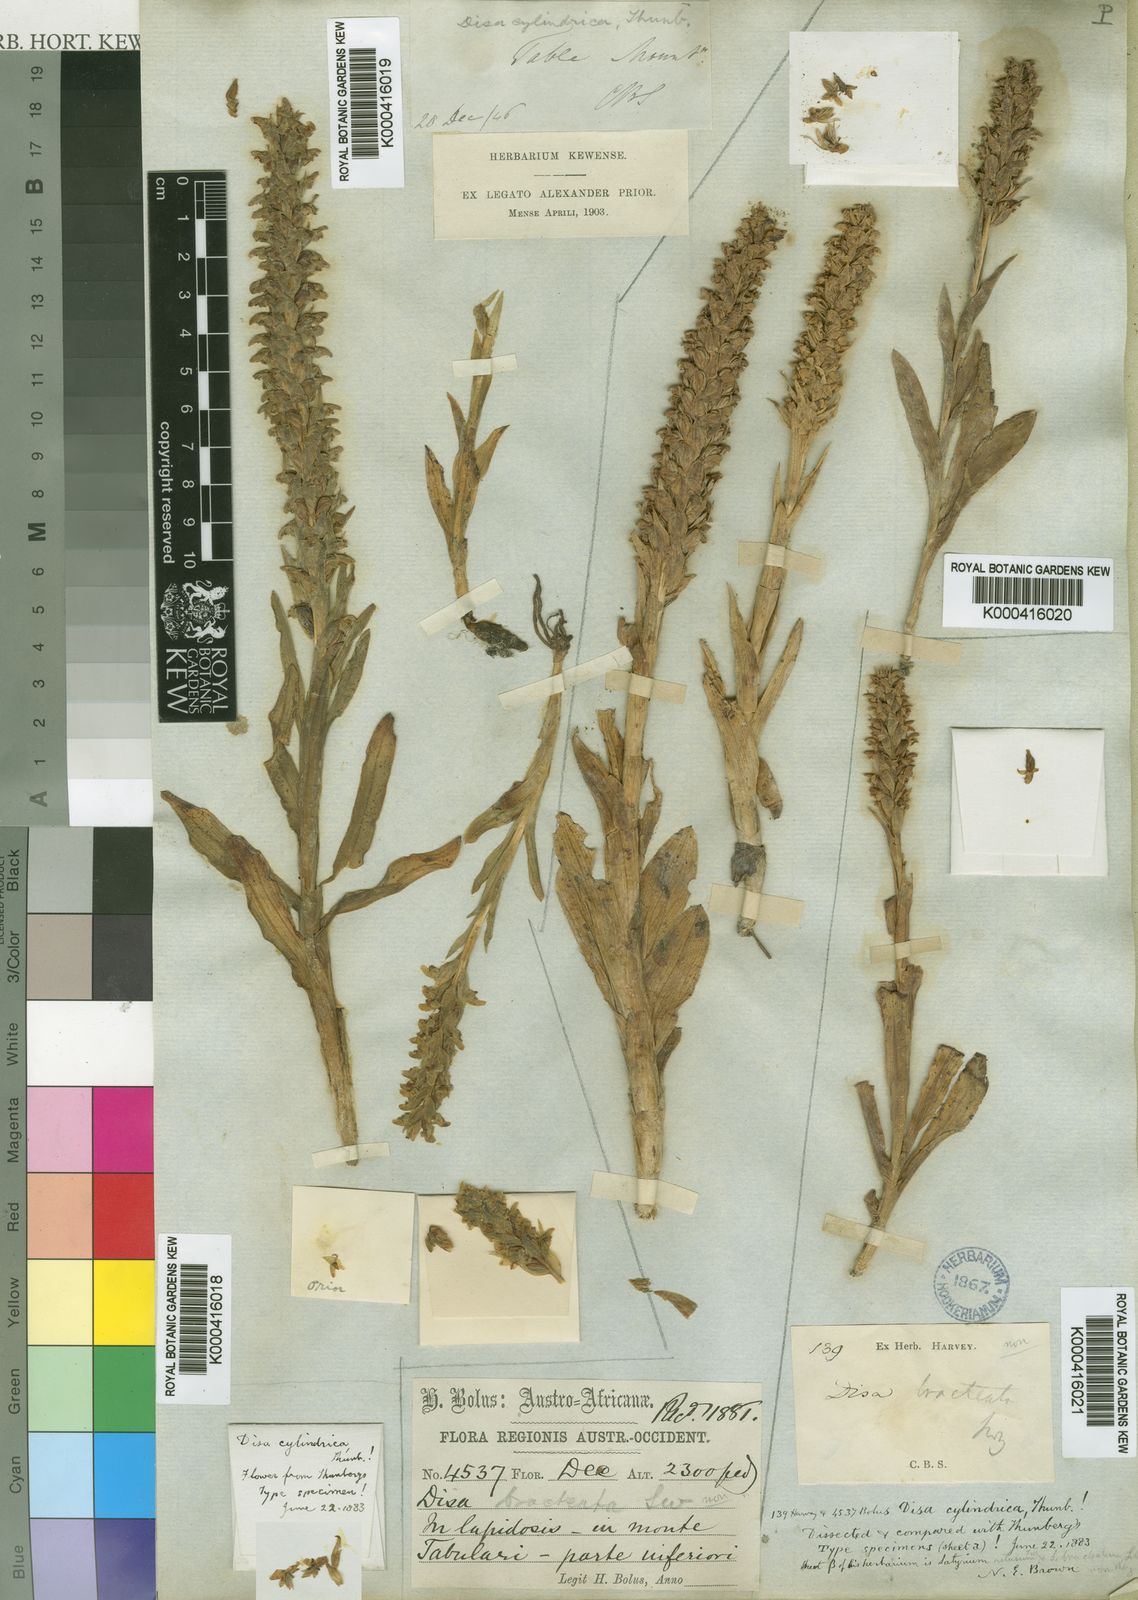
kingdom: Plantae
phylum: Tracheophyta
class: Liliopsida
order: Asparagales
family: Orchidaceae
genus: Disa
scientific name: Disa cylindrica
